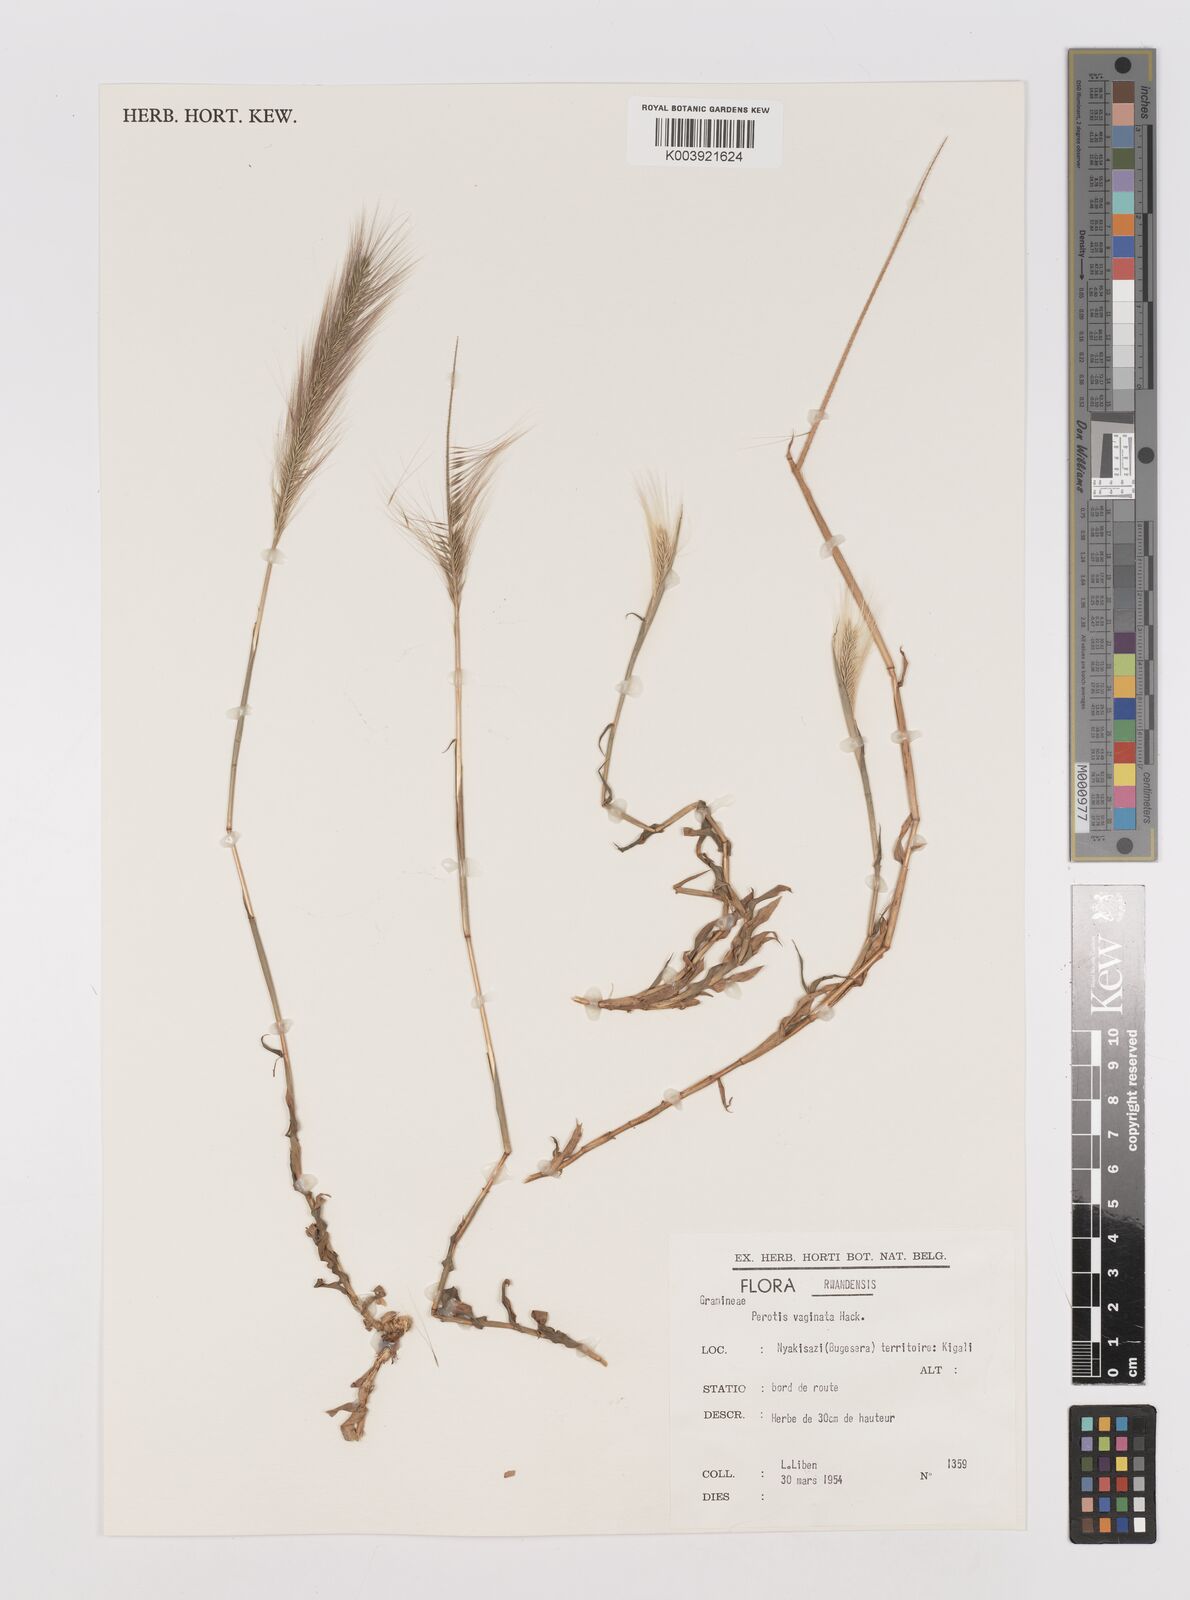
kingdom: Plantae
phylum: Tracheophyta
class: Liliopsida
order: Poales
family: Poaceae
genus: Perotis
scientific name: Perotis vaginata
